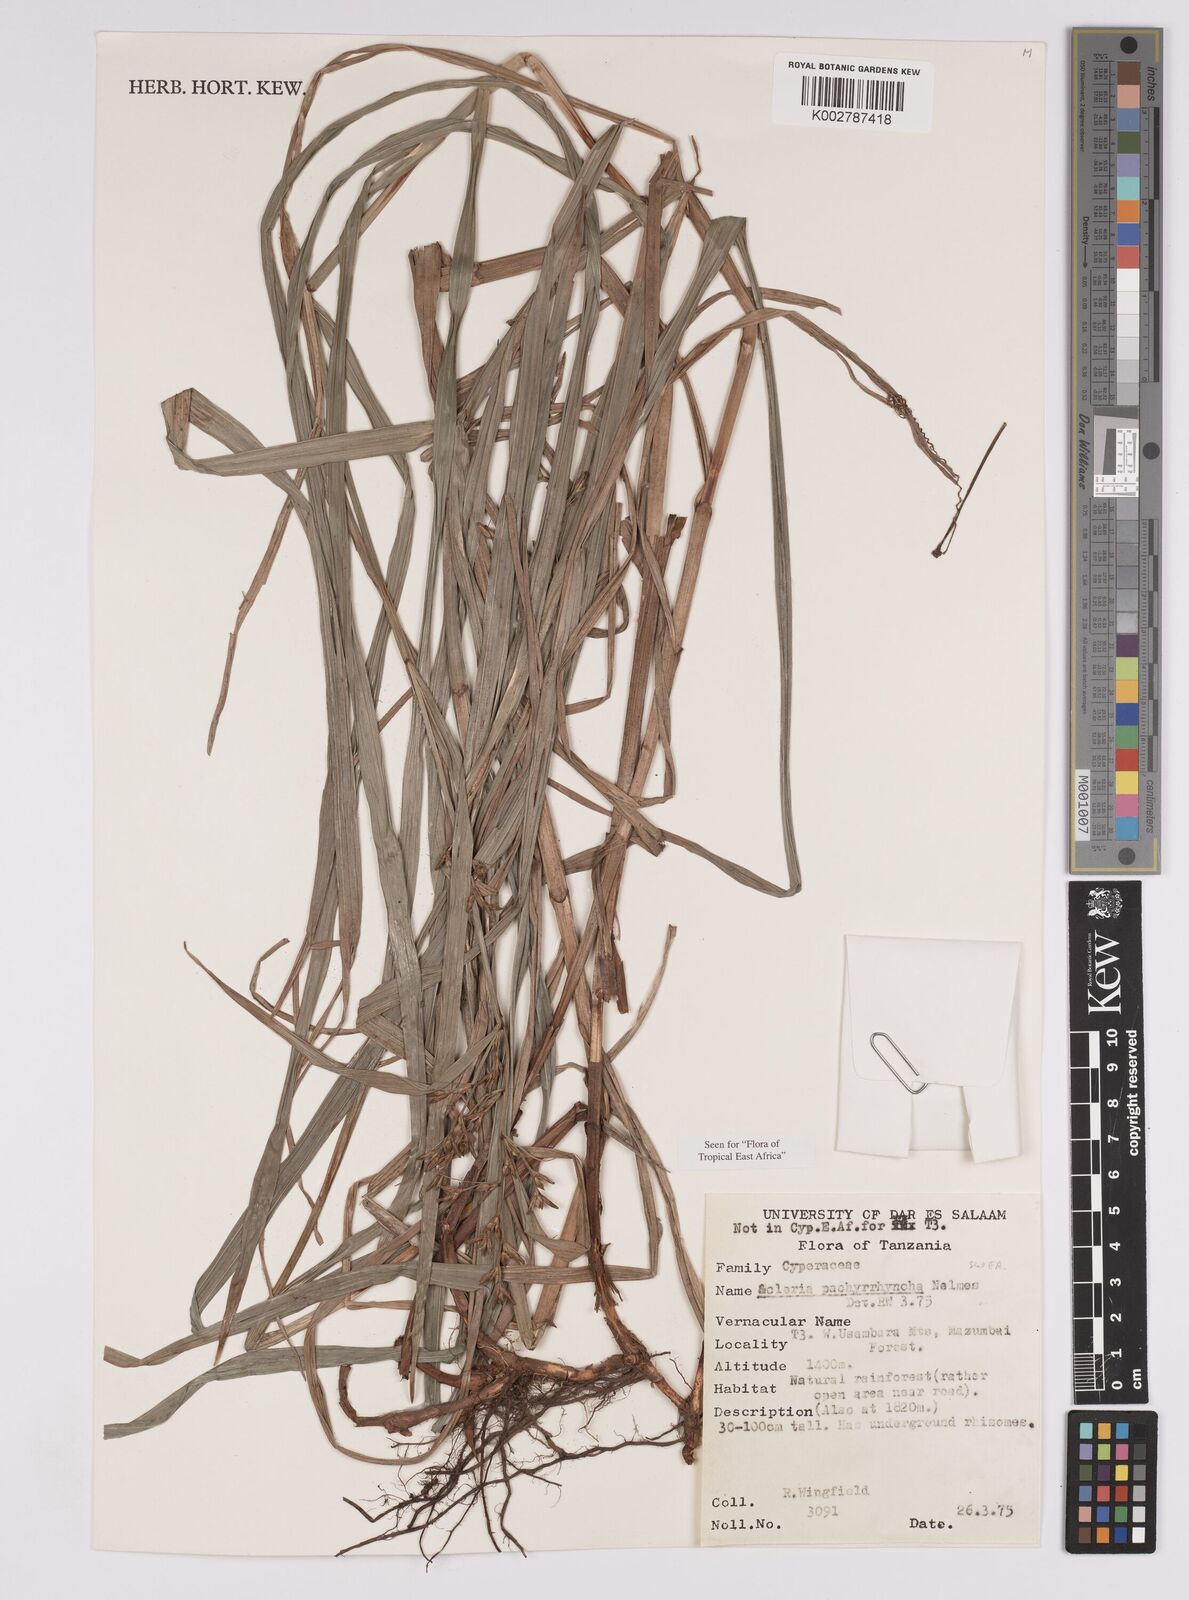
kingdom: Plantae
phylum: Tracheophyta
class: Liliopsida
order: Poales
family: Cyperaceae
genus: Scleria
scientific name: Scleria pachyrrhyncha
